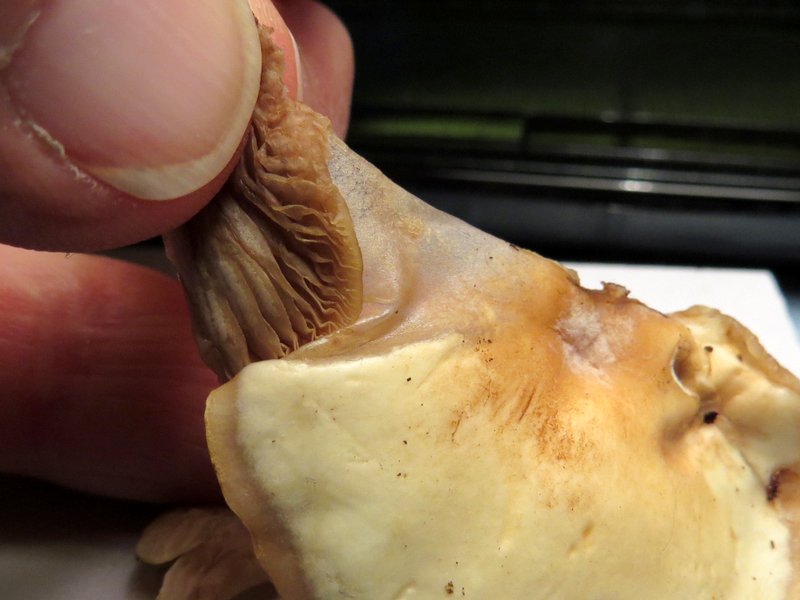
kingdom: Fungi
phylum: Basidiomycota
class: Agaricomycetes
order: Agaricales
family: Sarcomyxaceae
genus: Sarcomyxa
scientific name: Sarcomyxa serotina
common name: gummihat
